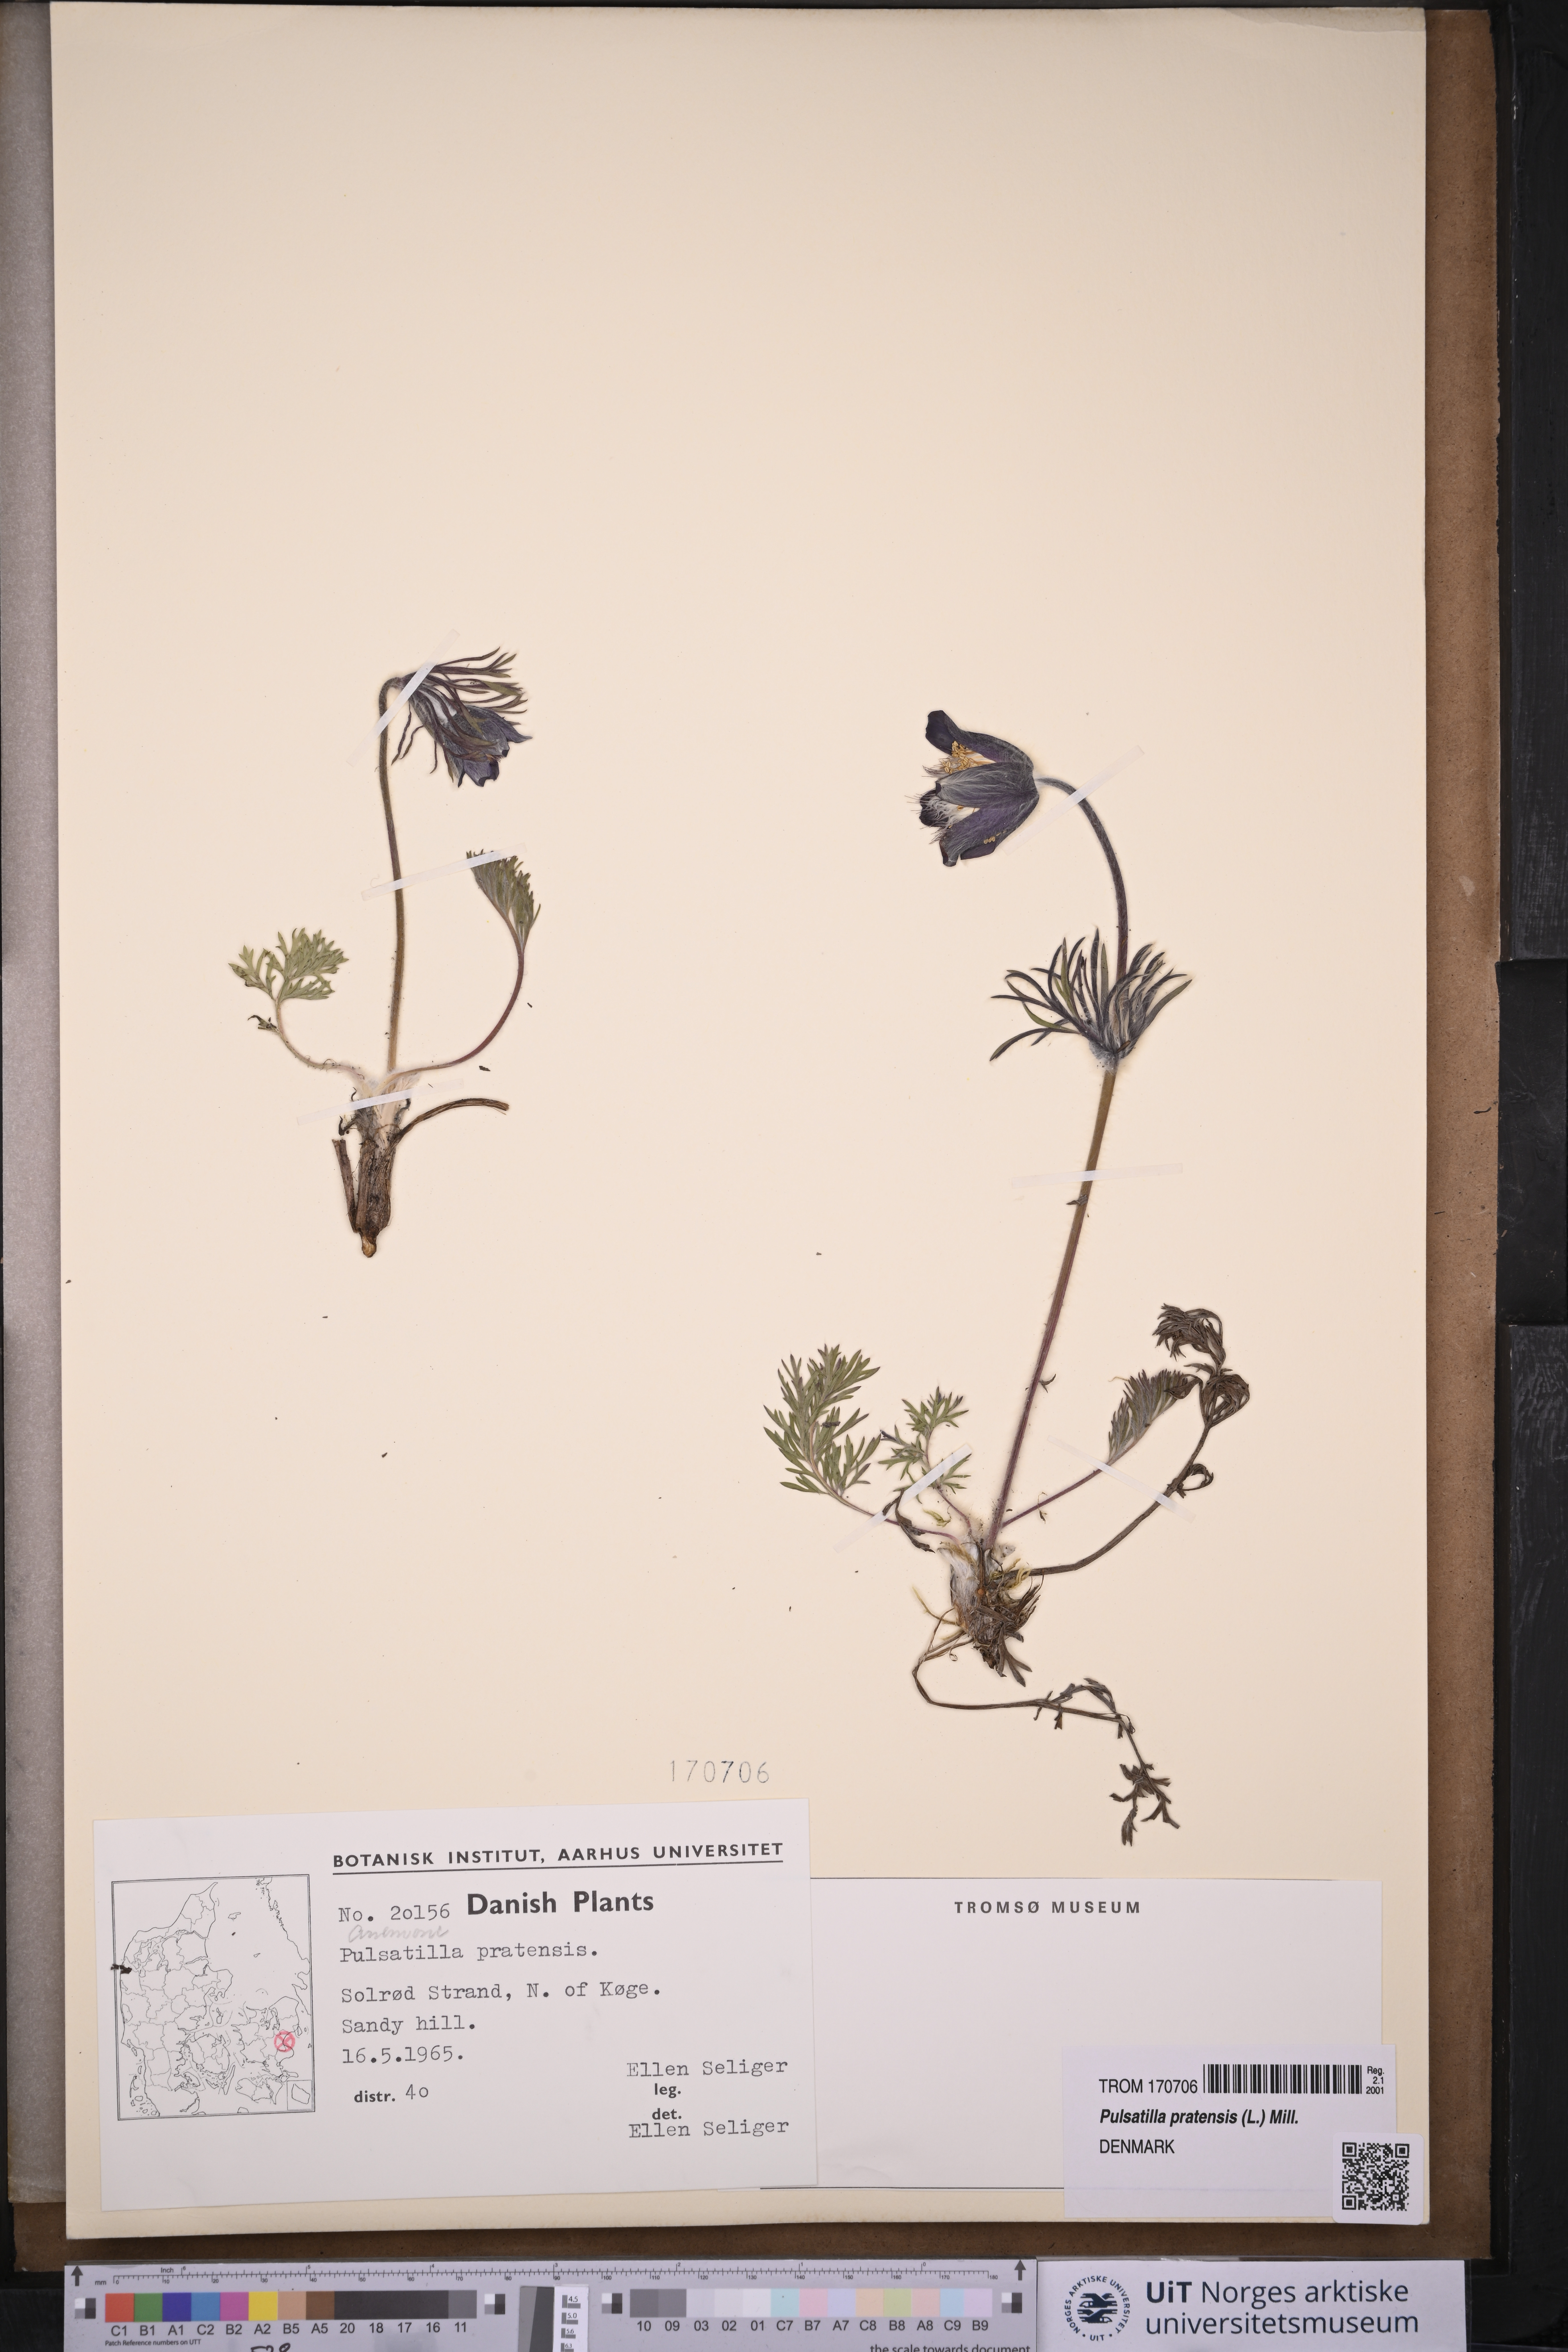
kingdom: Plantae
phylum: Tracheophyta
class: Magnoliopsida
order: Ranunculales
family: Ranunculaceae
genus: Pulsatilla
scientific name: Pulsatilla pratensis
